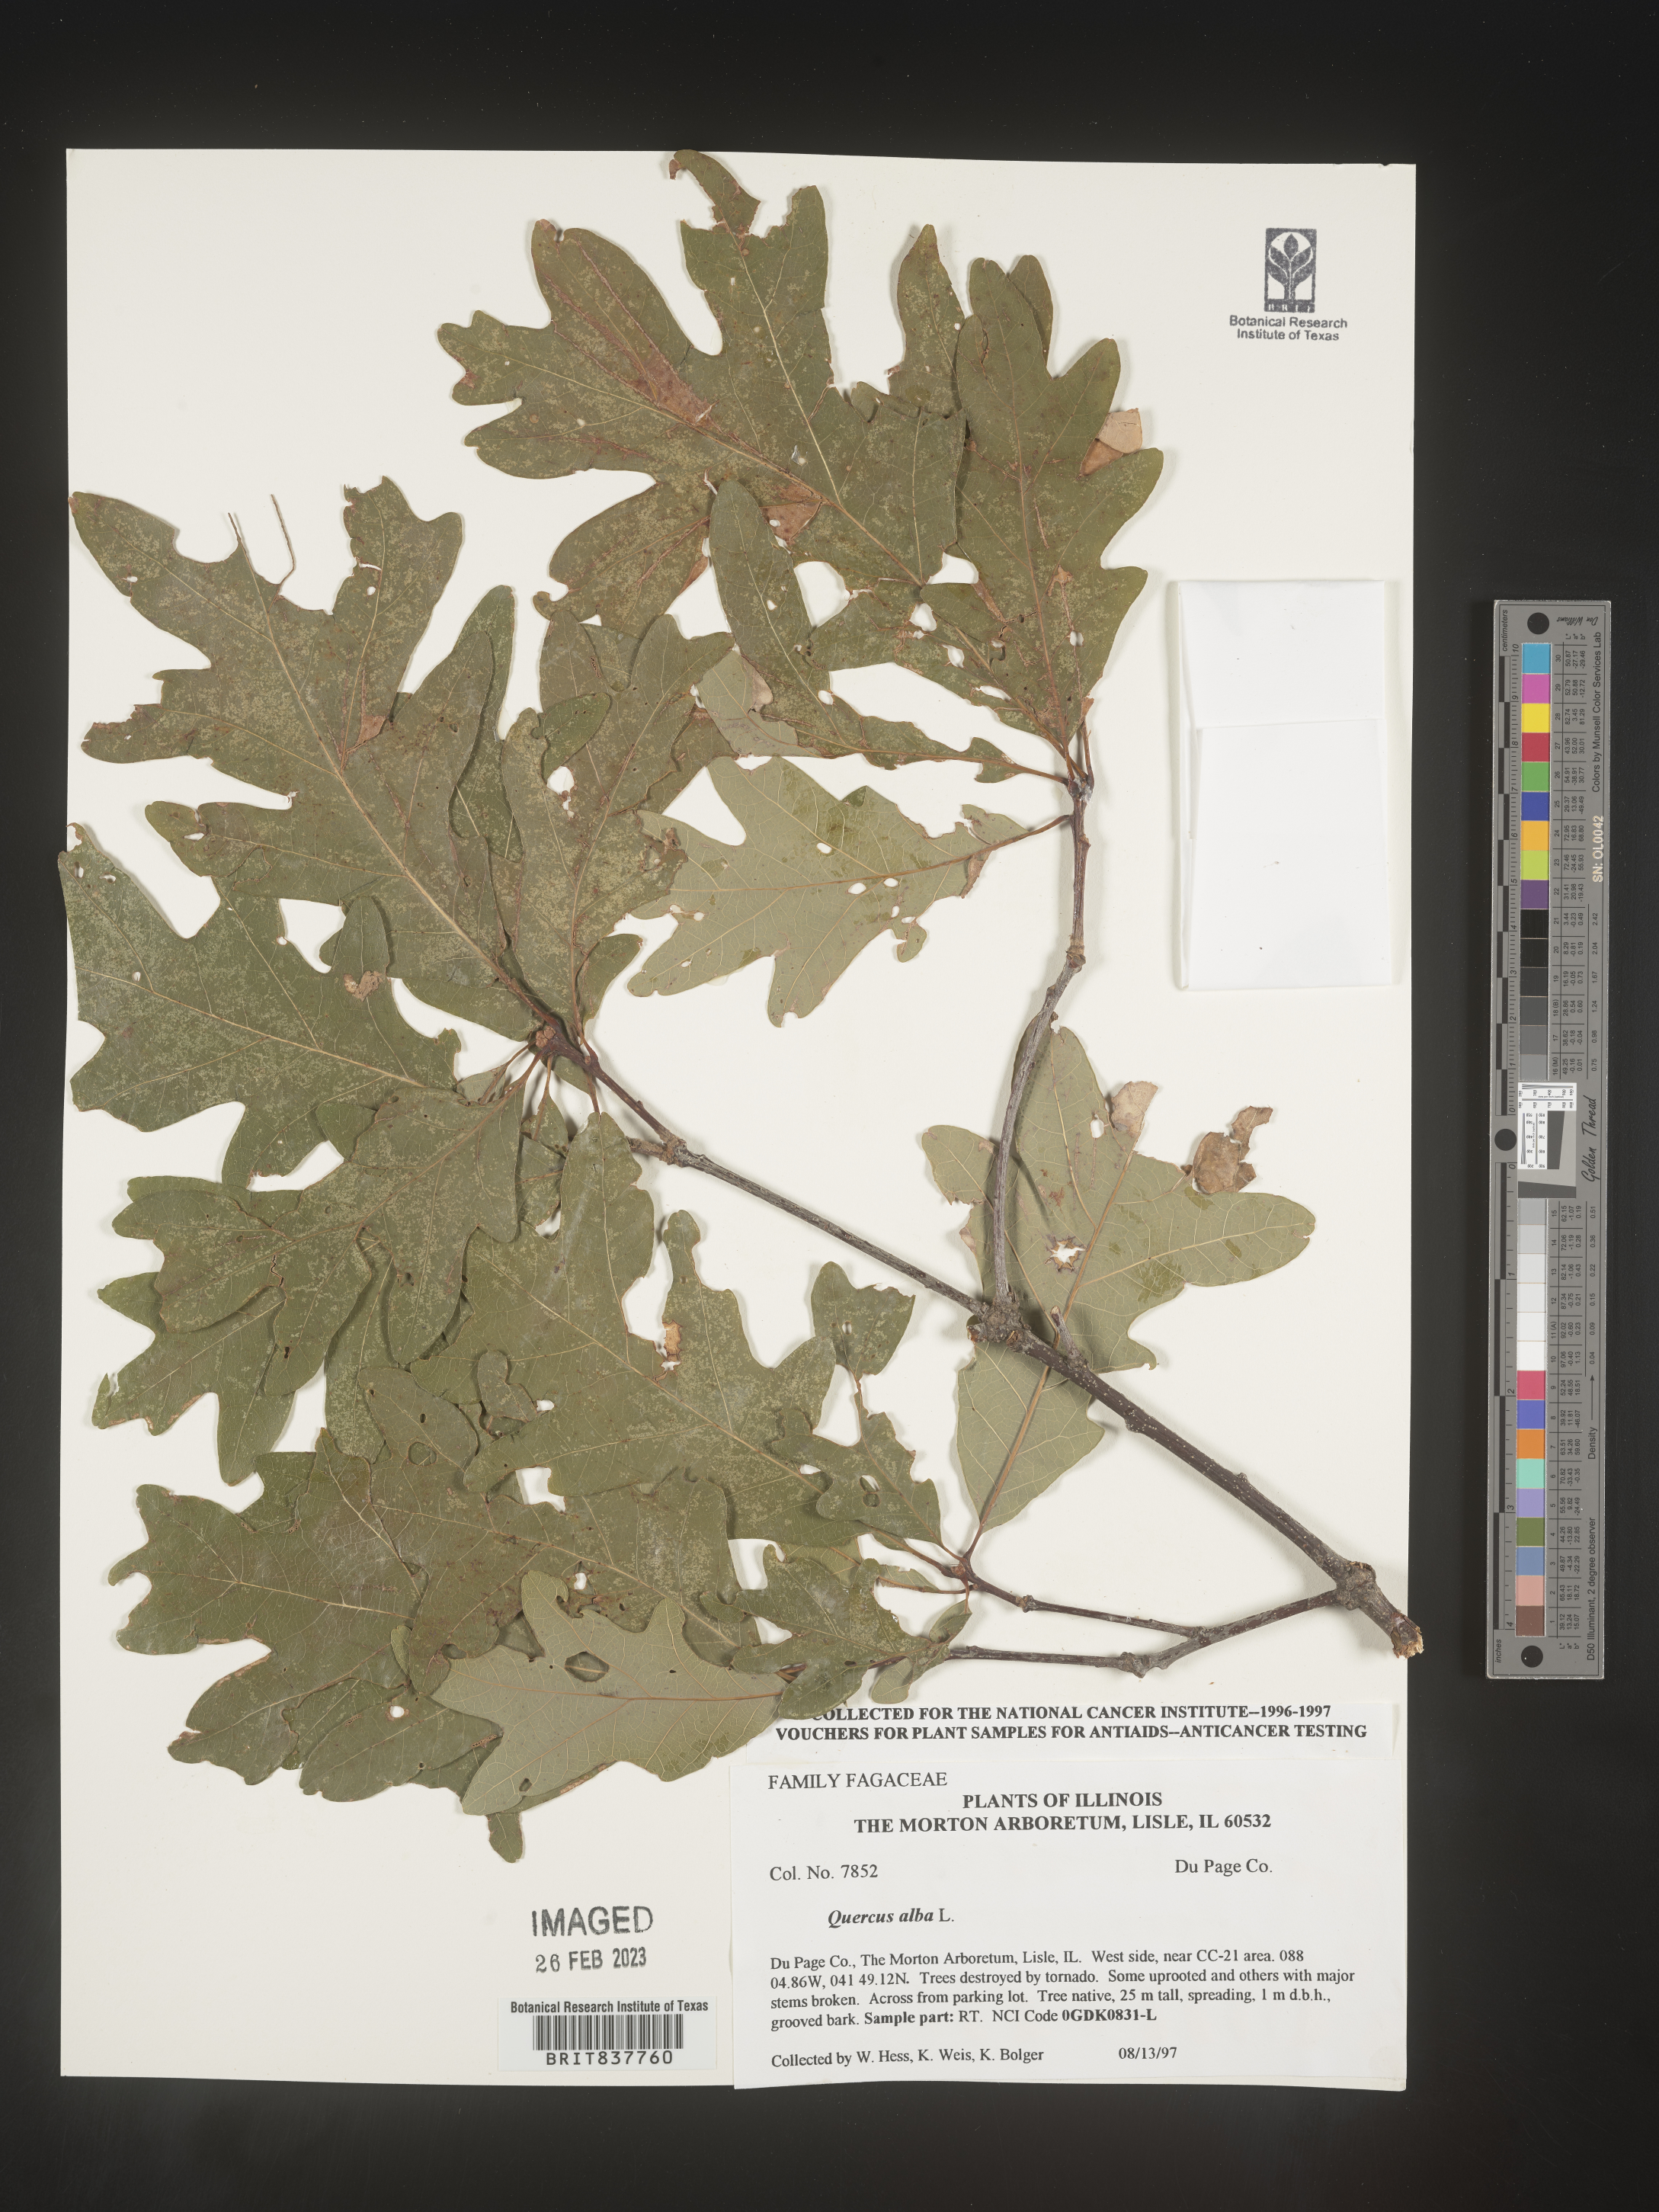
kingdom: Plantae
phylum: Tracheophyta
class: Magnoliopsida
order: Fagales
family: Fagaceae
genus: Quercus
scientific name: Quercus alba
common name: White oak
